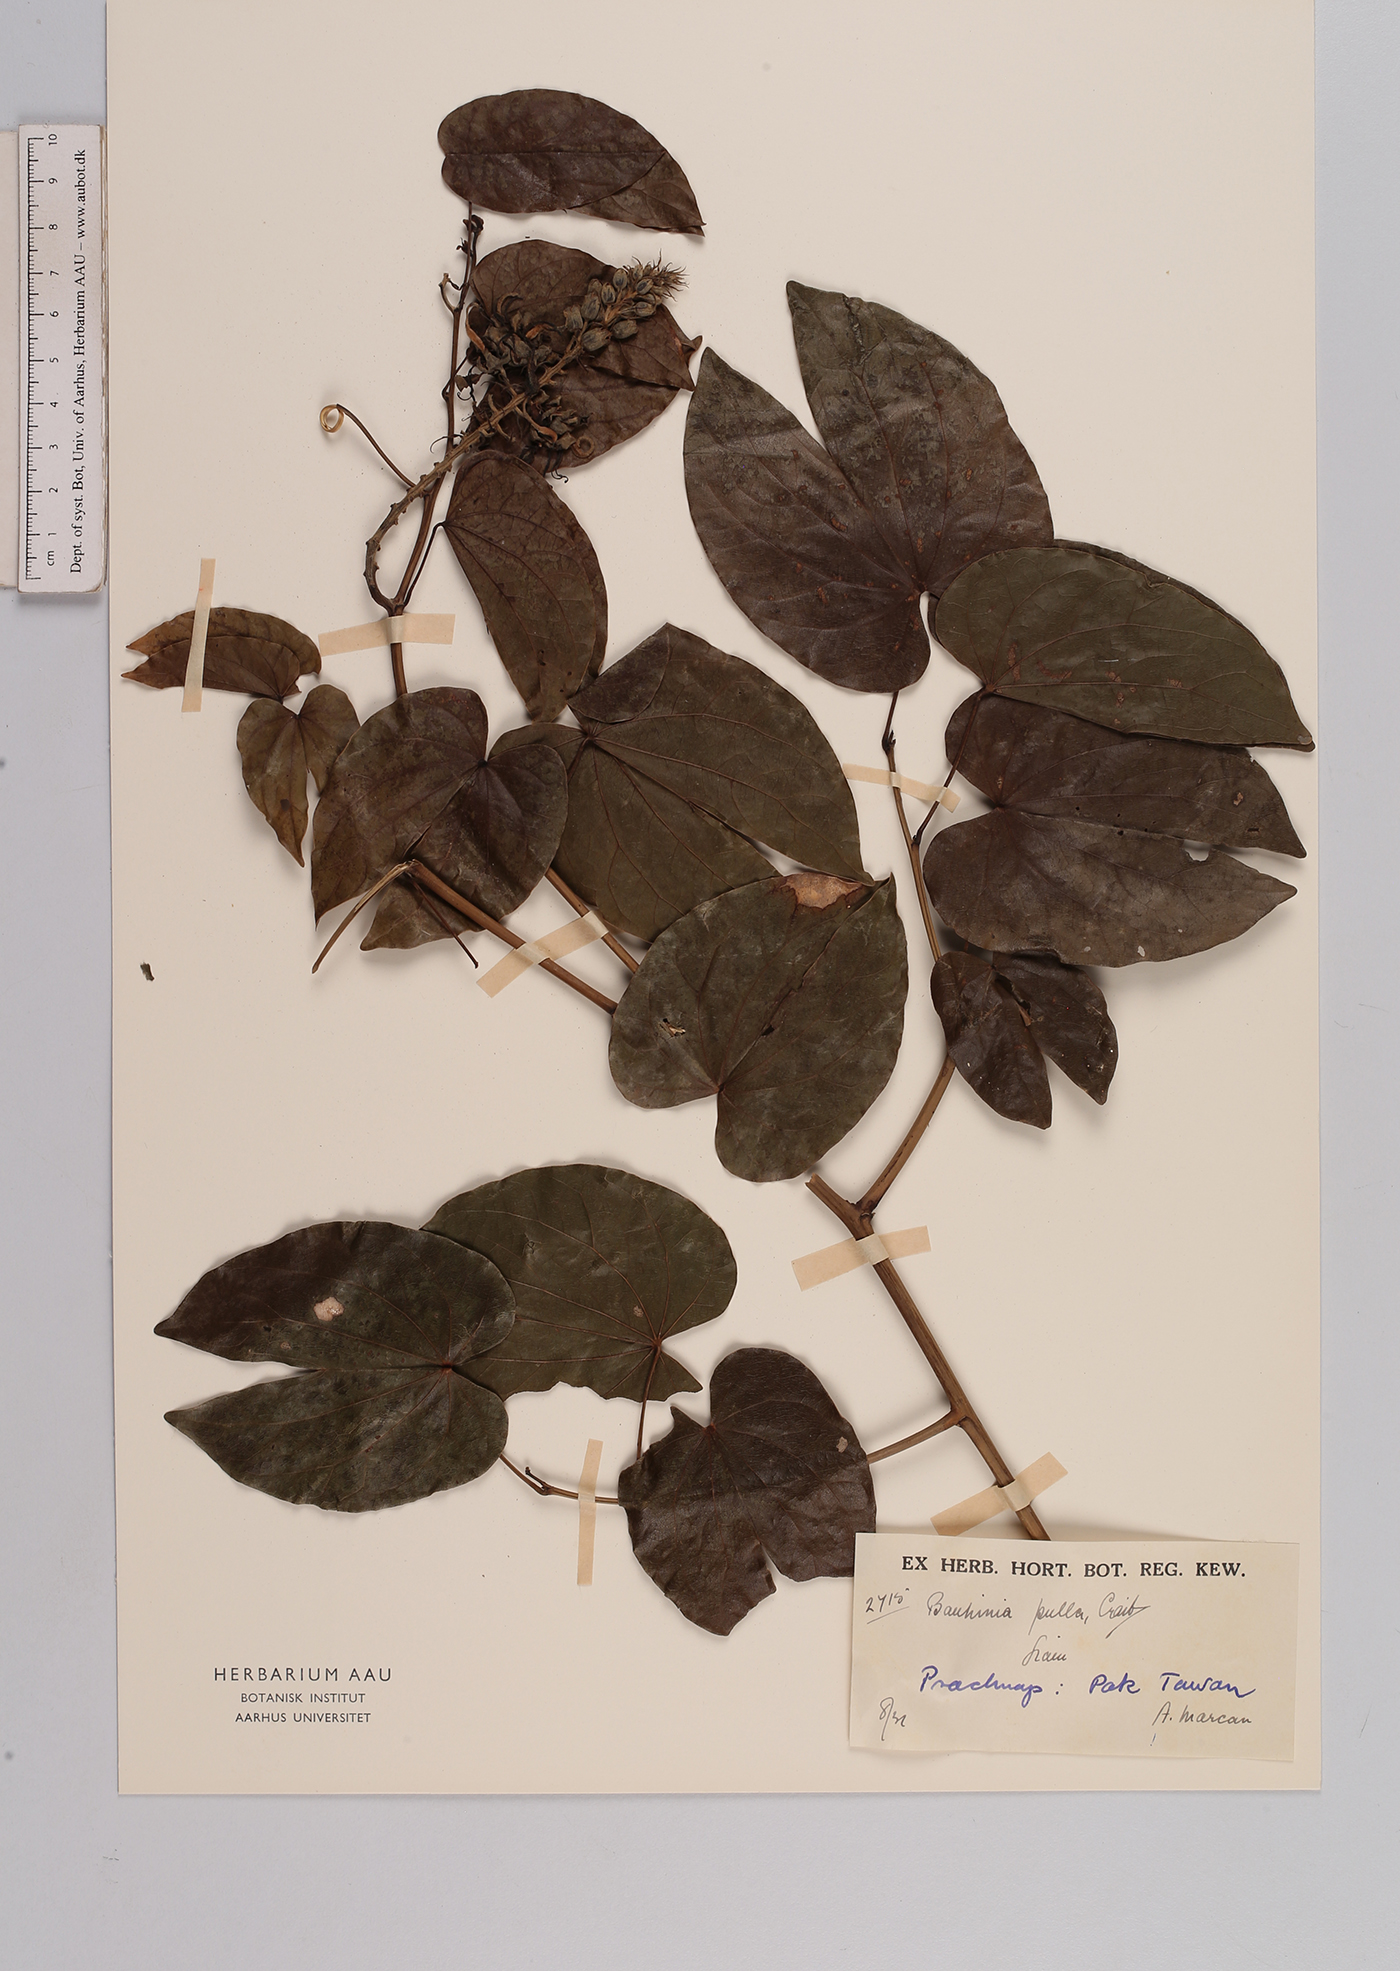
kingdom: Plantae
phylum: Tracheophyta
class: Magnoliopsida
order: Fabales
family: Fabaceae
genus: Phanera
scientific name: Phanera pulla
